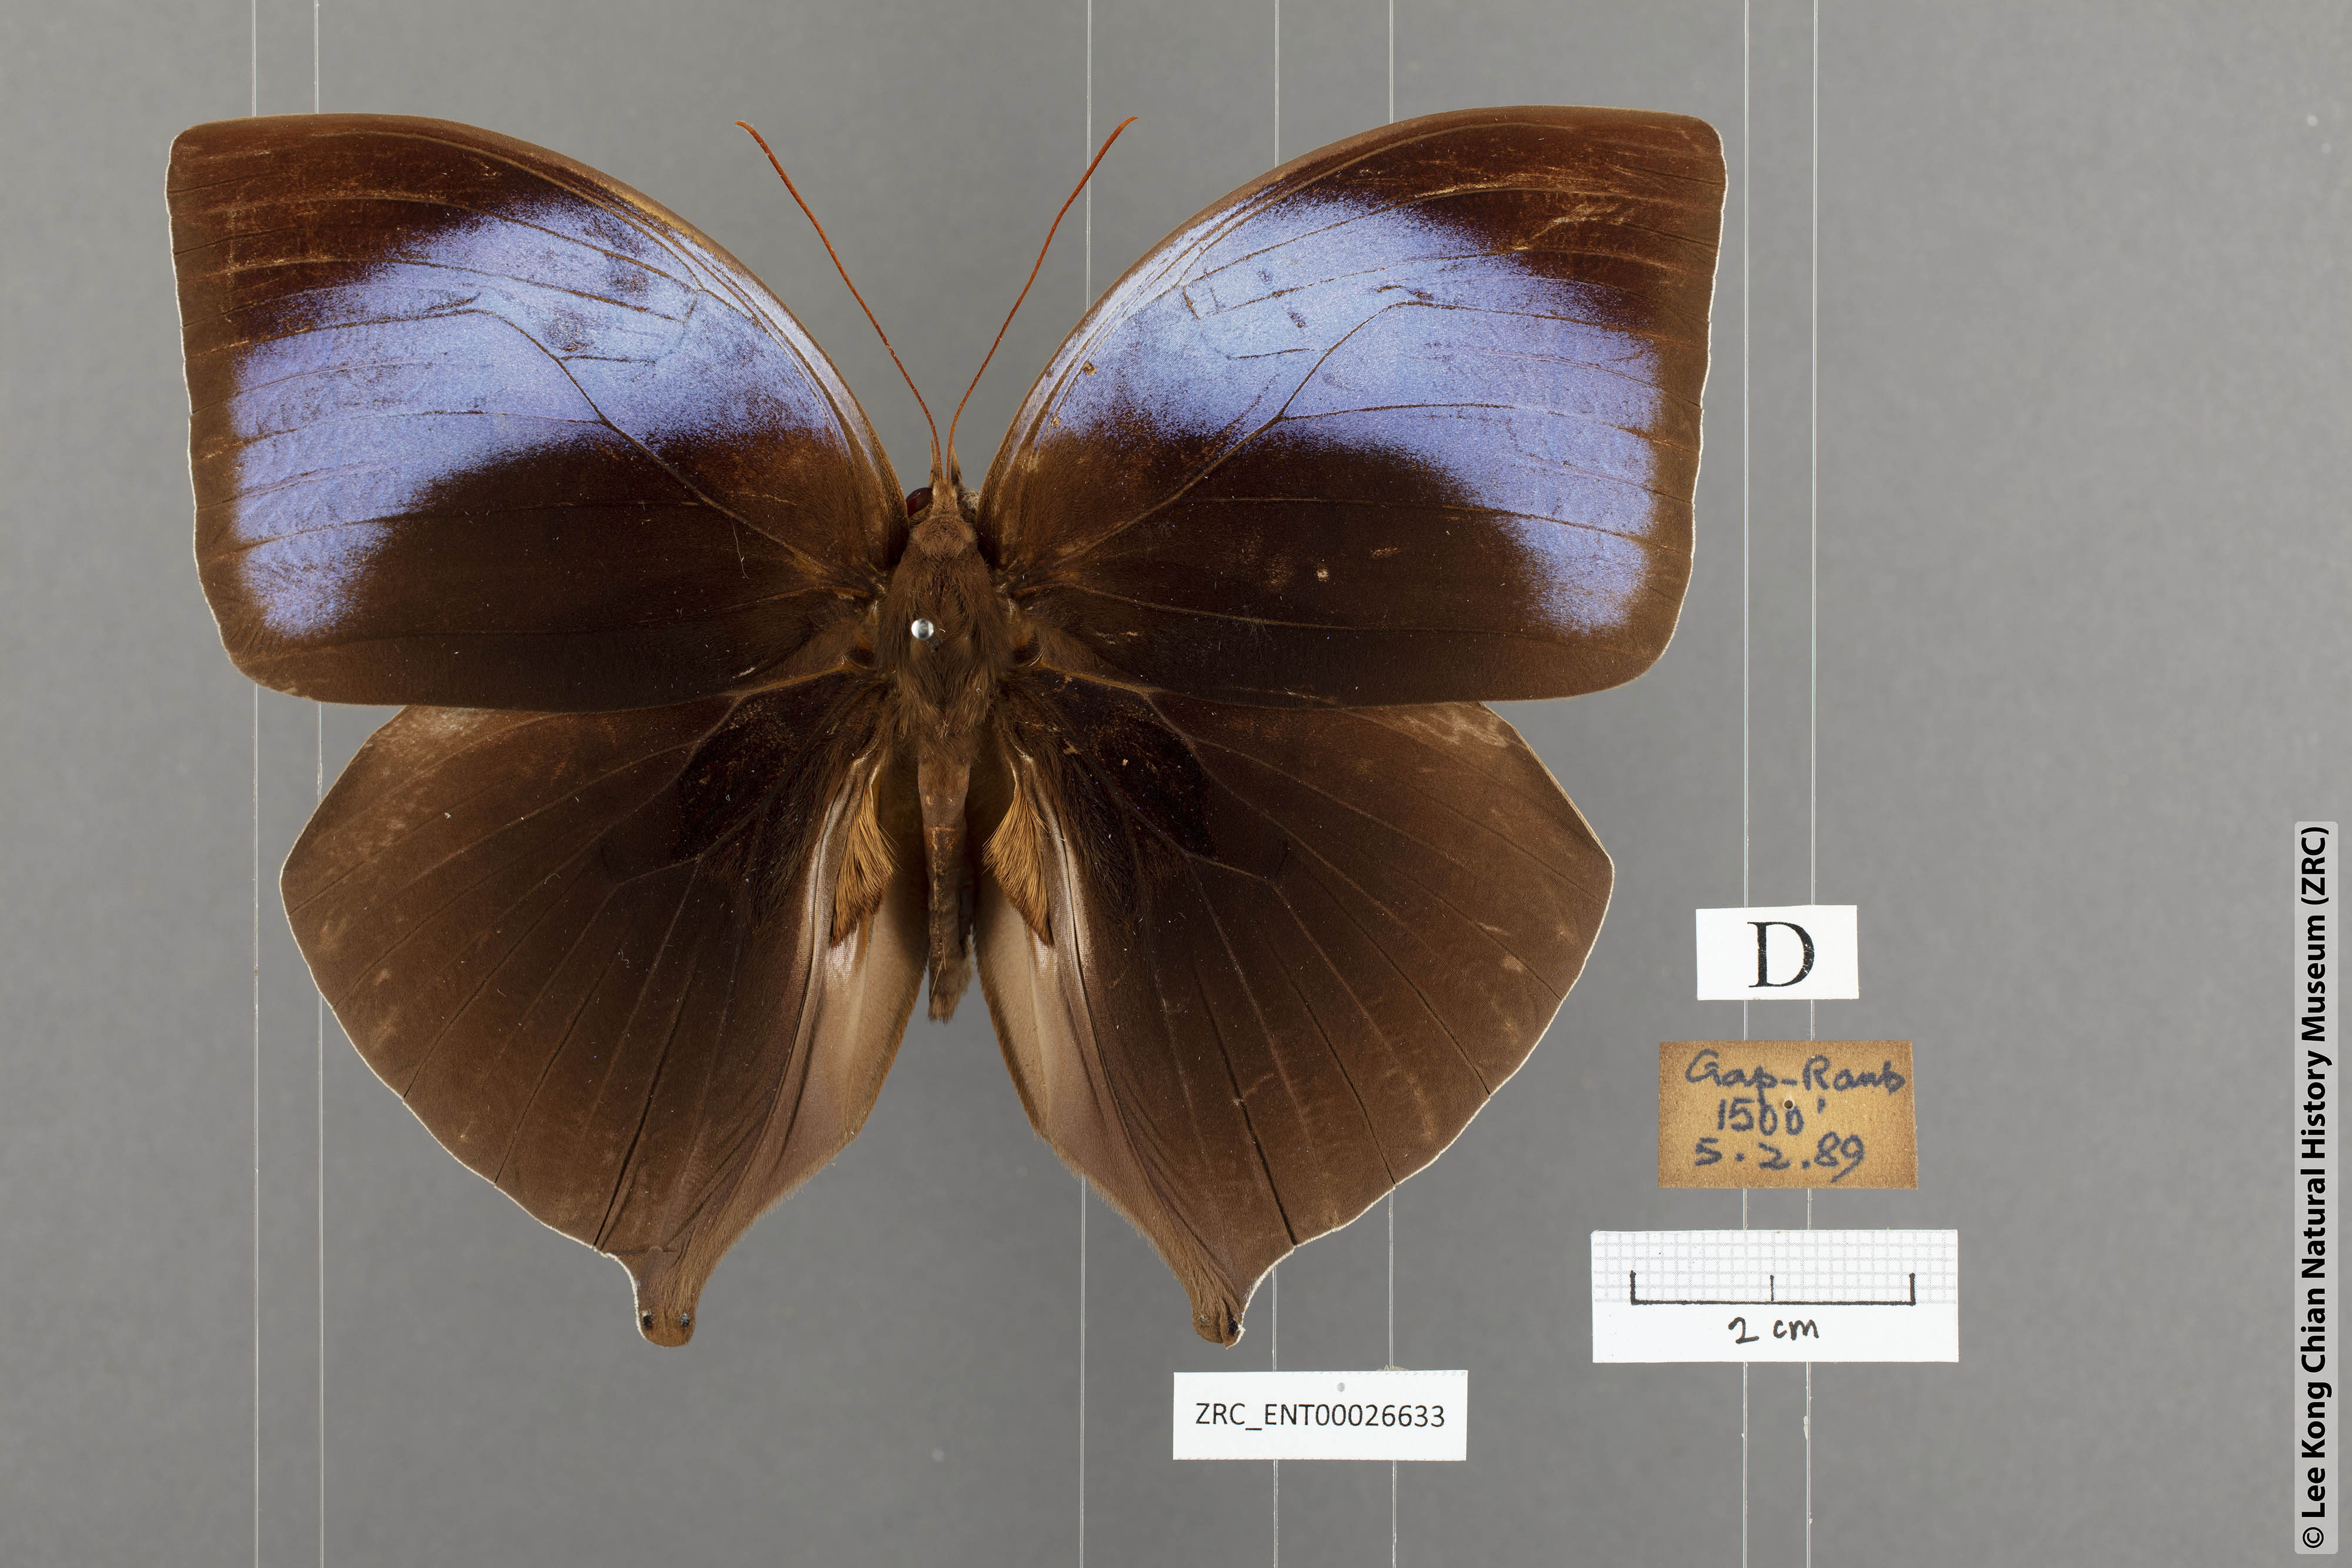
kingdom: Animalia
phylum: Arthropoda
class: Insecta
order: Lepidoptera
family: Nymphalidae
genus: Amathuxidia
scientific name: Amathuxidia amythaon
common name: Koh-i-noor
